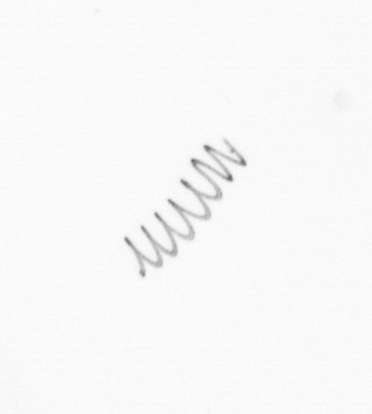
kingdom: Chromista
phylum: Ochrophyta
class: Bacillariophyceae
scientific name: Bacillariophyceae
